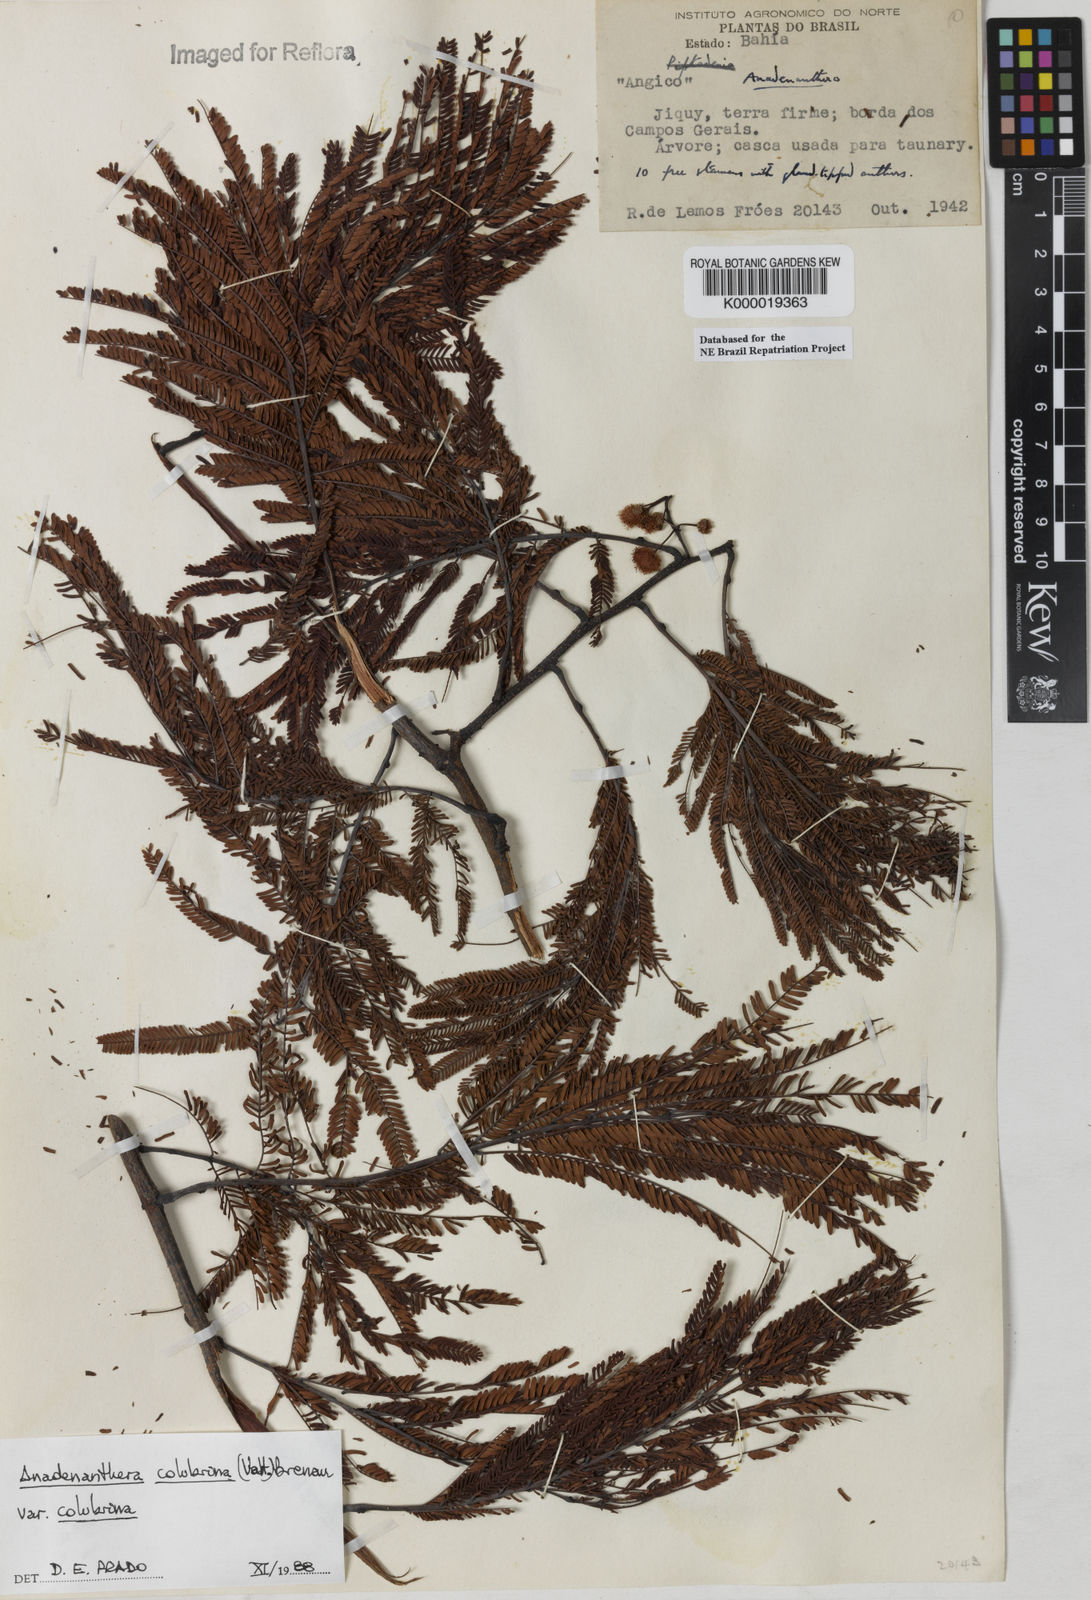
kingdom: Plantae
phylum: Tracheophyta
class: Magnoliopsida
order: Fabales
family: Fabaceae
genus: Anadenanthera
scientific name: Anadenanthera colubrina
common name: Curupay
